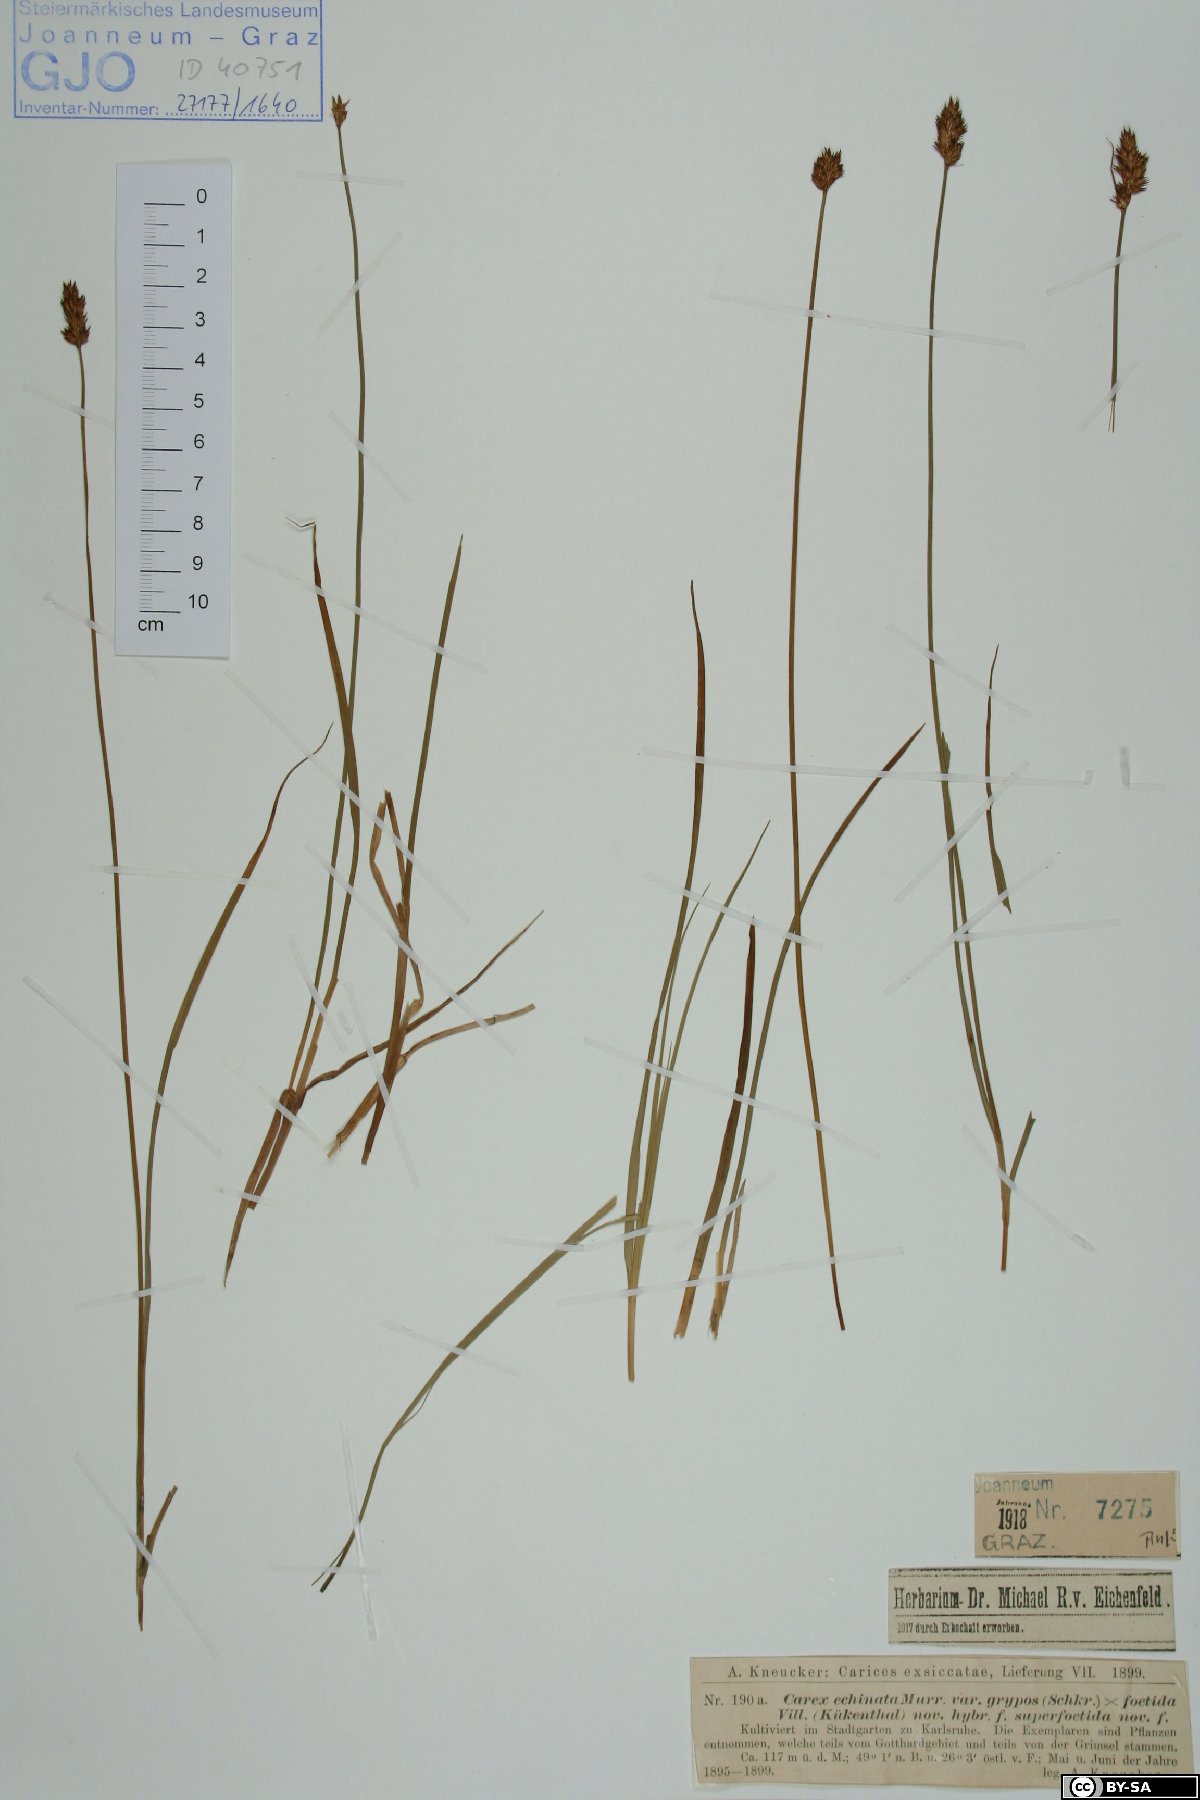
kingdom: Plantae
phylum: Tracheophyta
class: Liliopsida
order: Poales
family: Cyperaceae
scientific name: Cyperaceae
